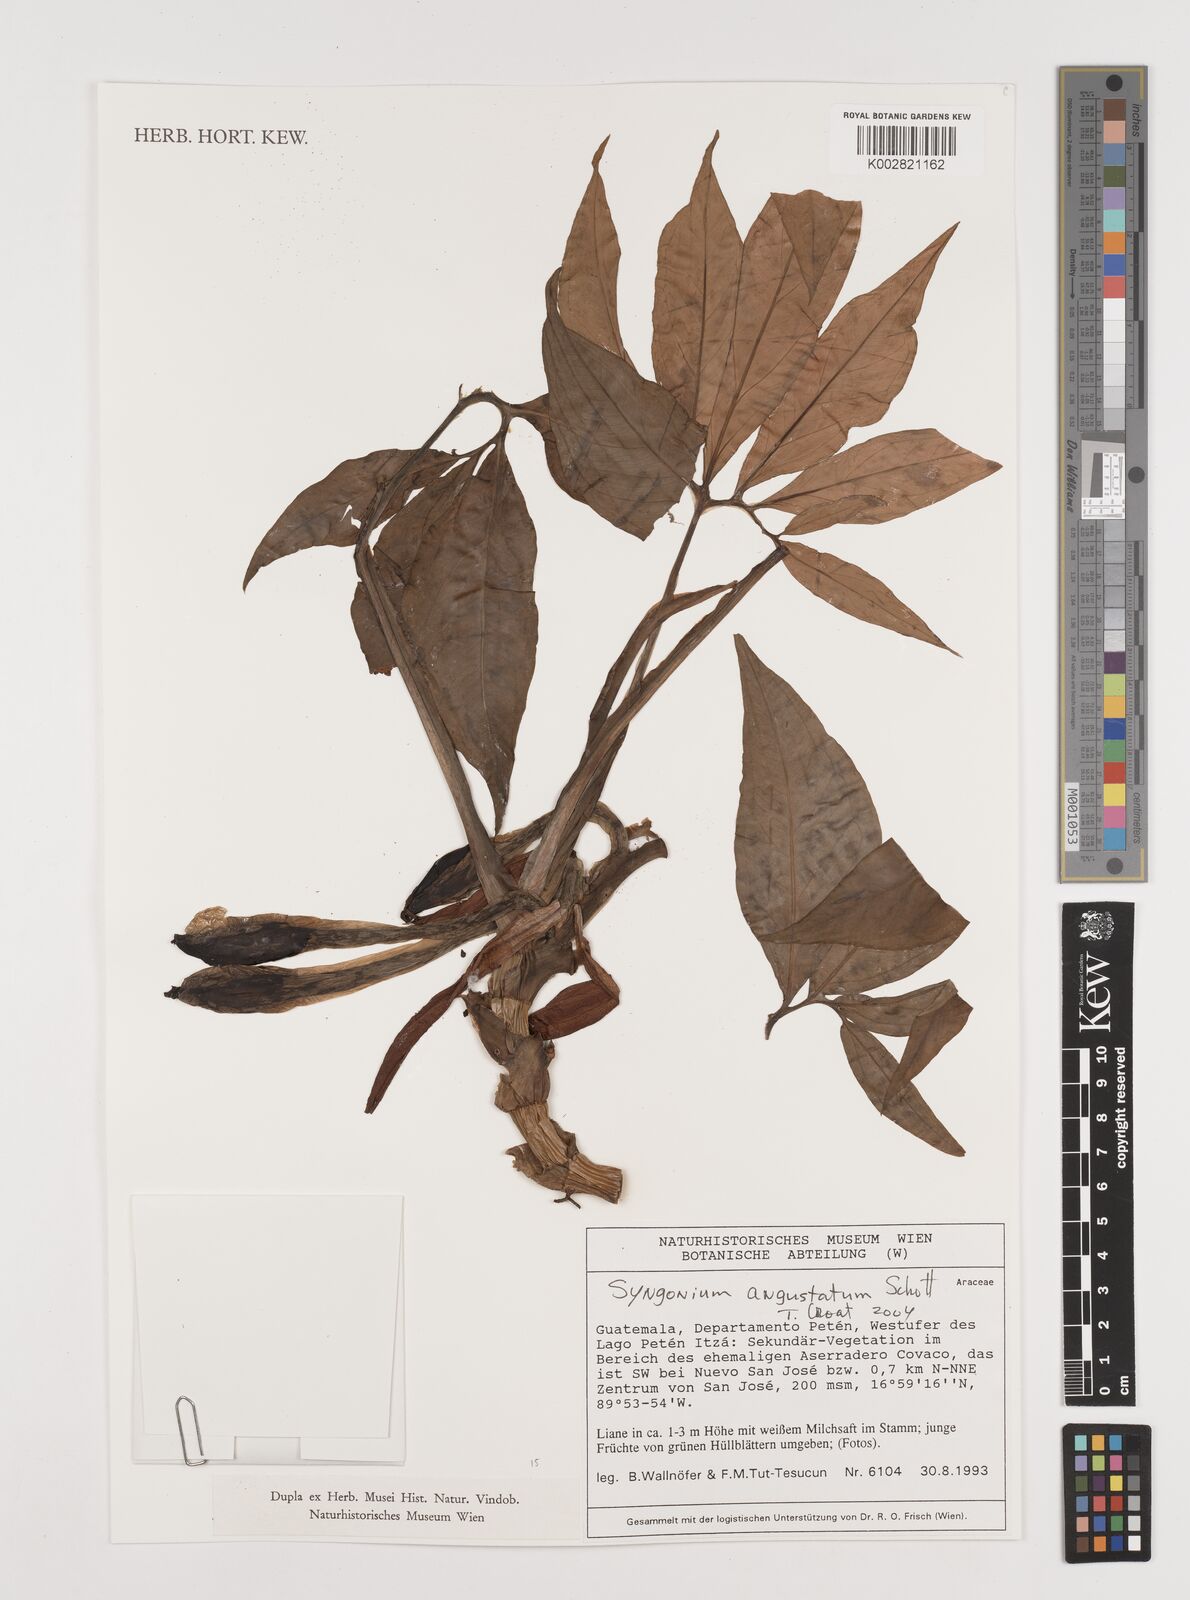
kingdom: Plantae
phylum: Tracheophyta
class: Liliopsida
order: Alismatales
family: Araceae
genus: Syngonium
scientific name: Syngonium angustatum
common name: Fivefingers
